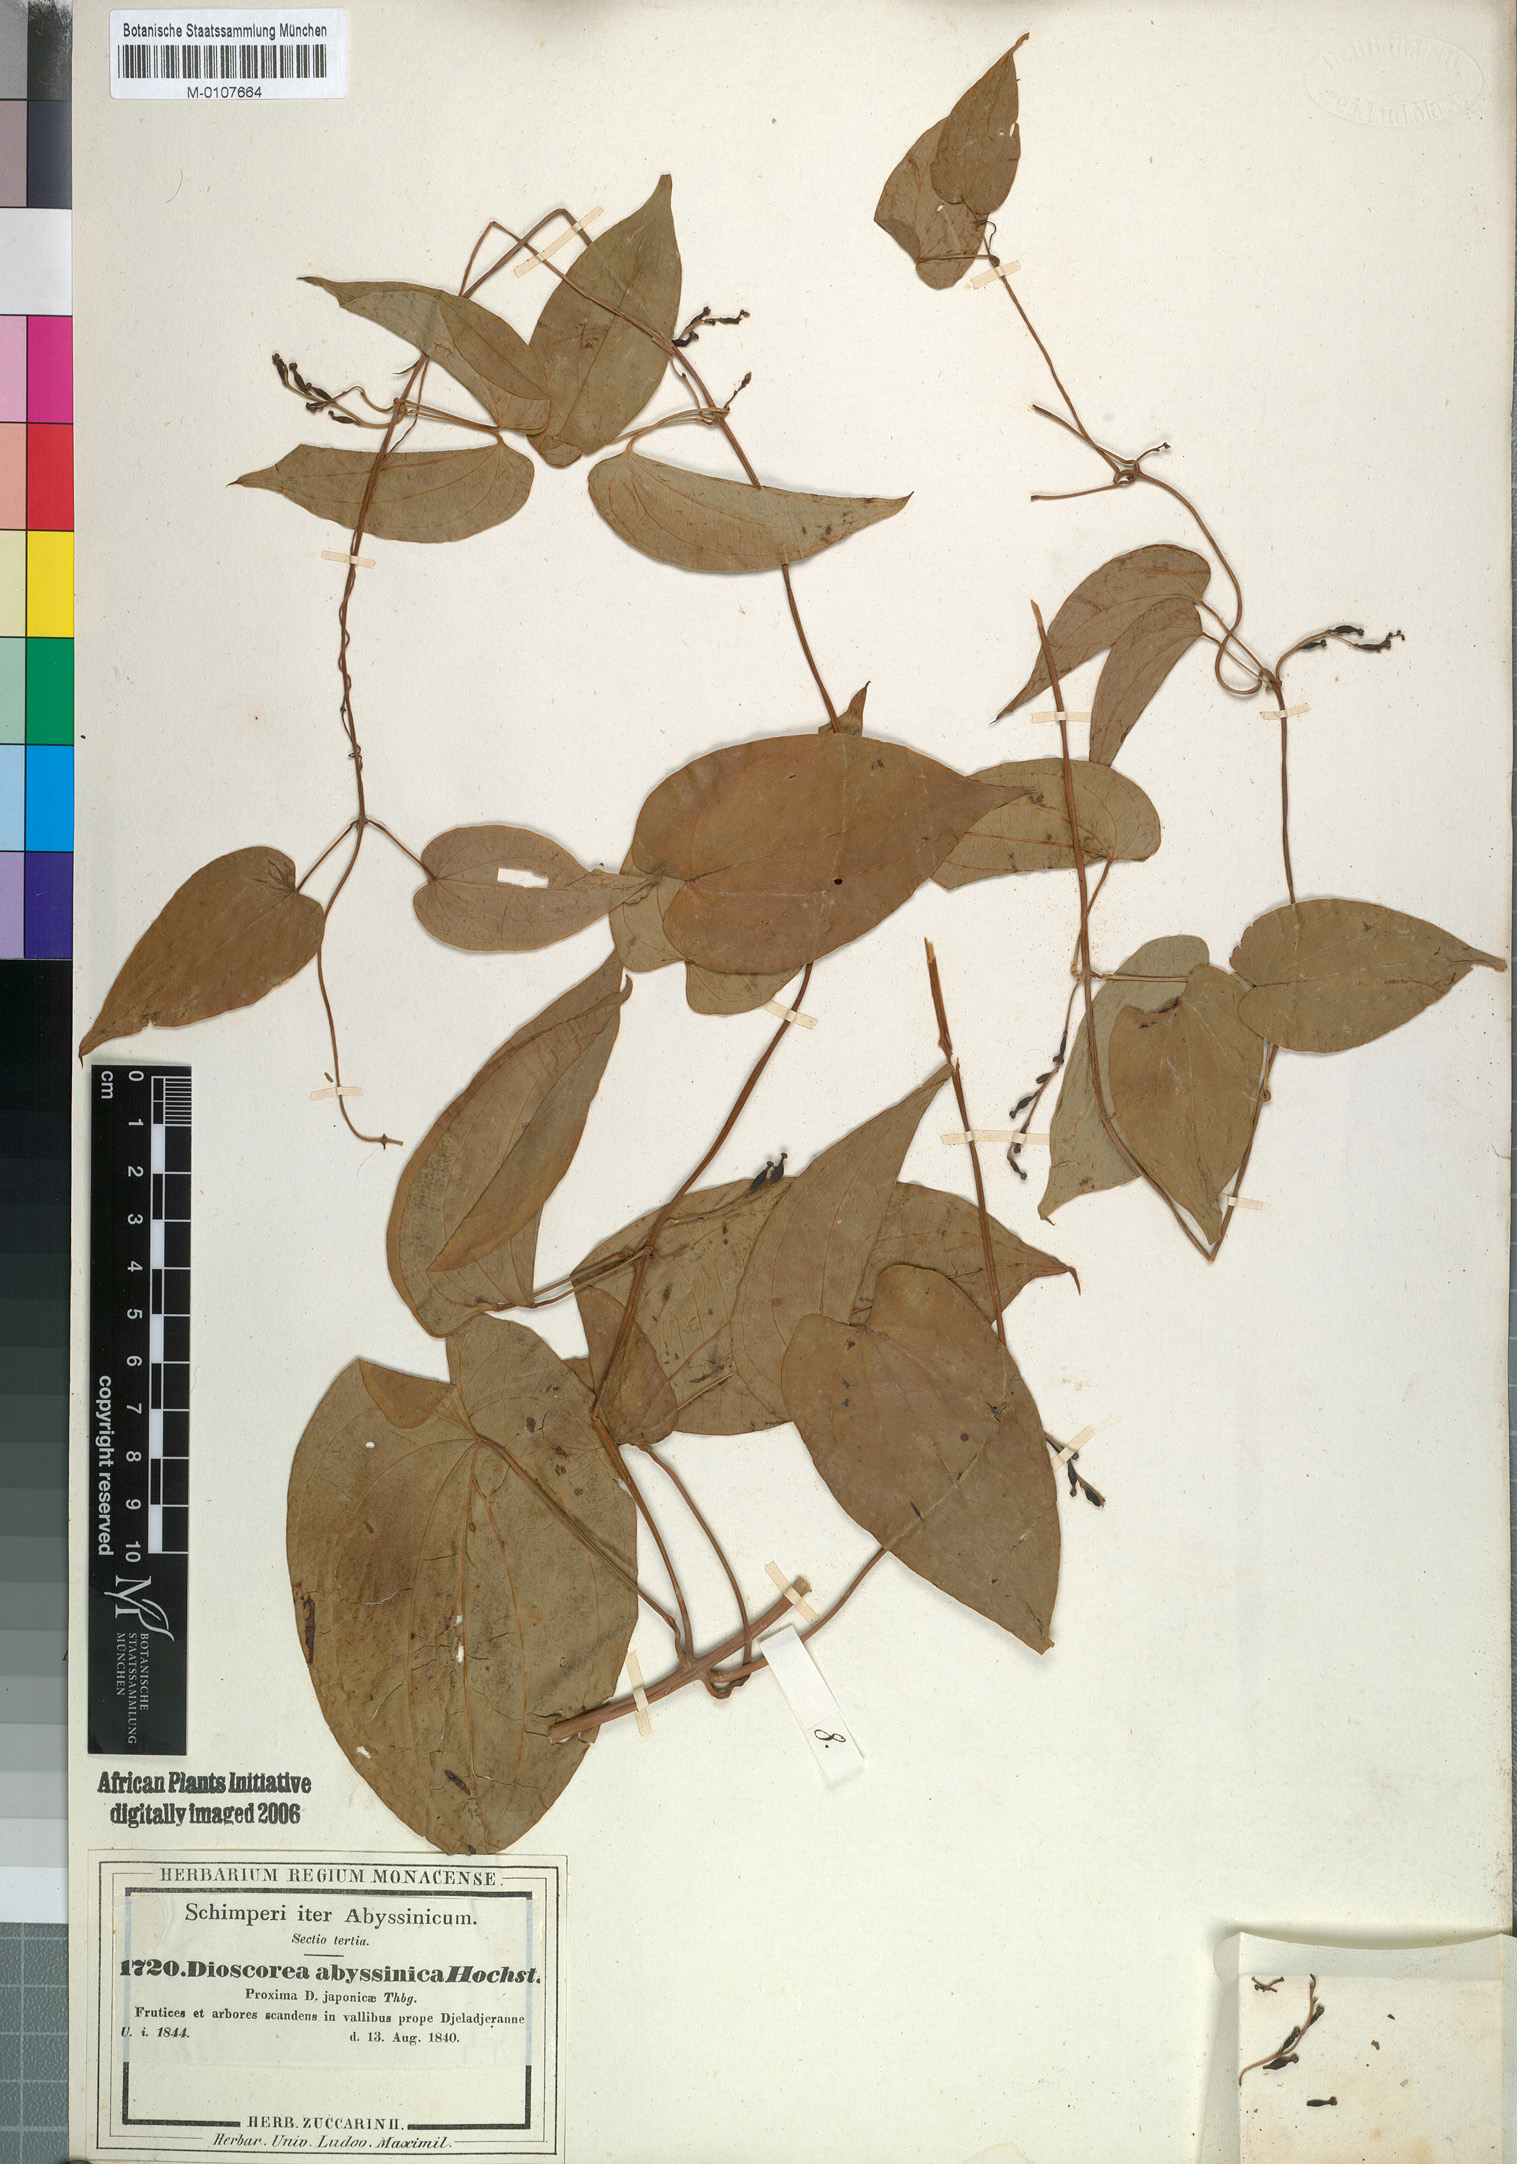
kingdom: Plantae
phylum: Tracheophyta
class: Liliopsida
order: Dioscoreales
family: Dioscoreaceae
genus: Dioscorea
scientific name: Dioscorea abyssinica
